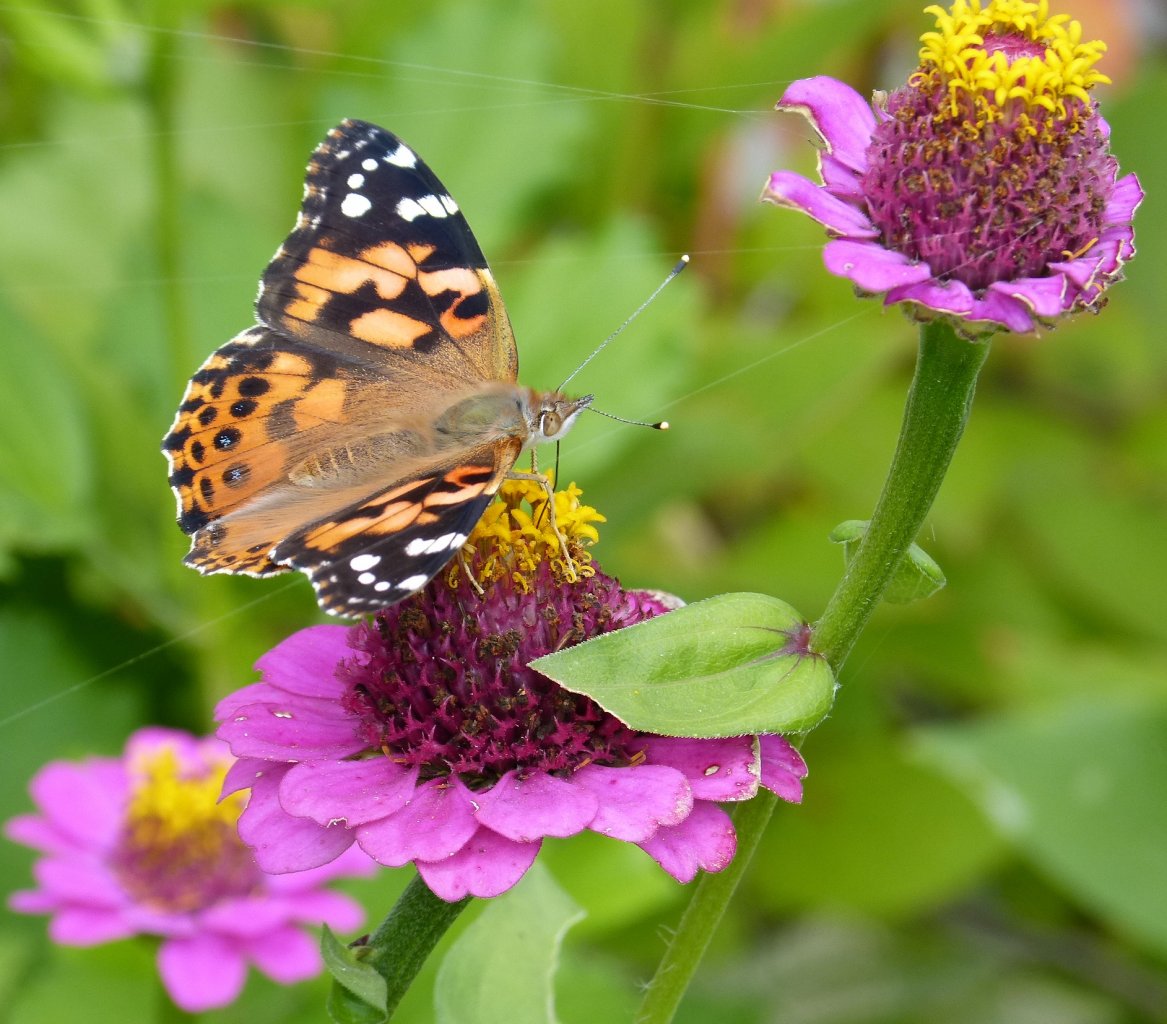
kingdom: Animalia
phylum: Arthropoda
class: Insecta
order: Lepidoptera
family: Nymphalidae
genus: Vanessa
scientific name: Vanessa cardui
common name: Painted Lady
